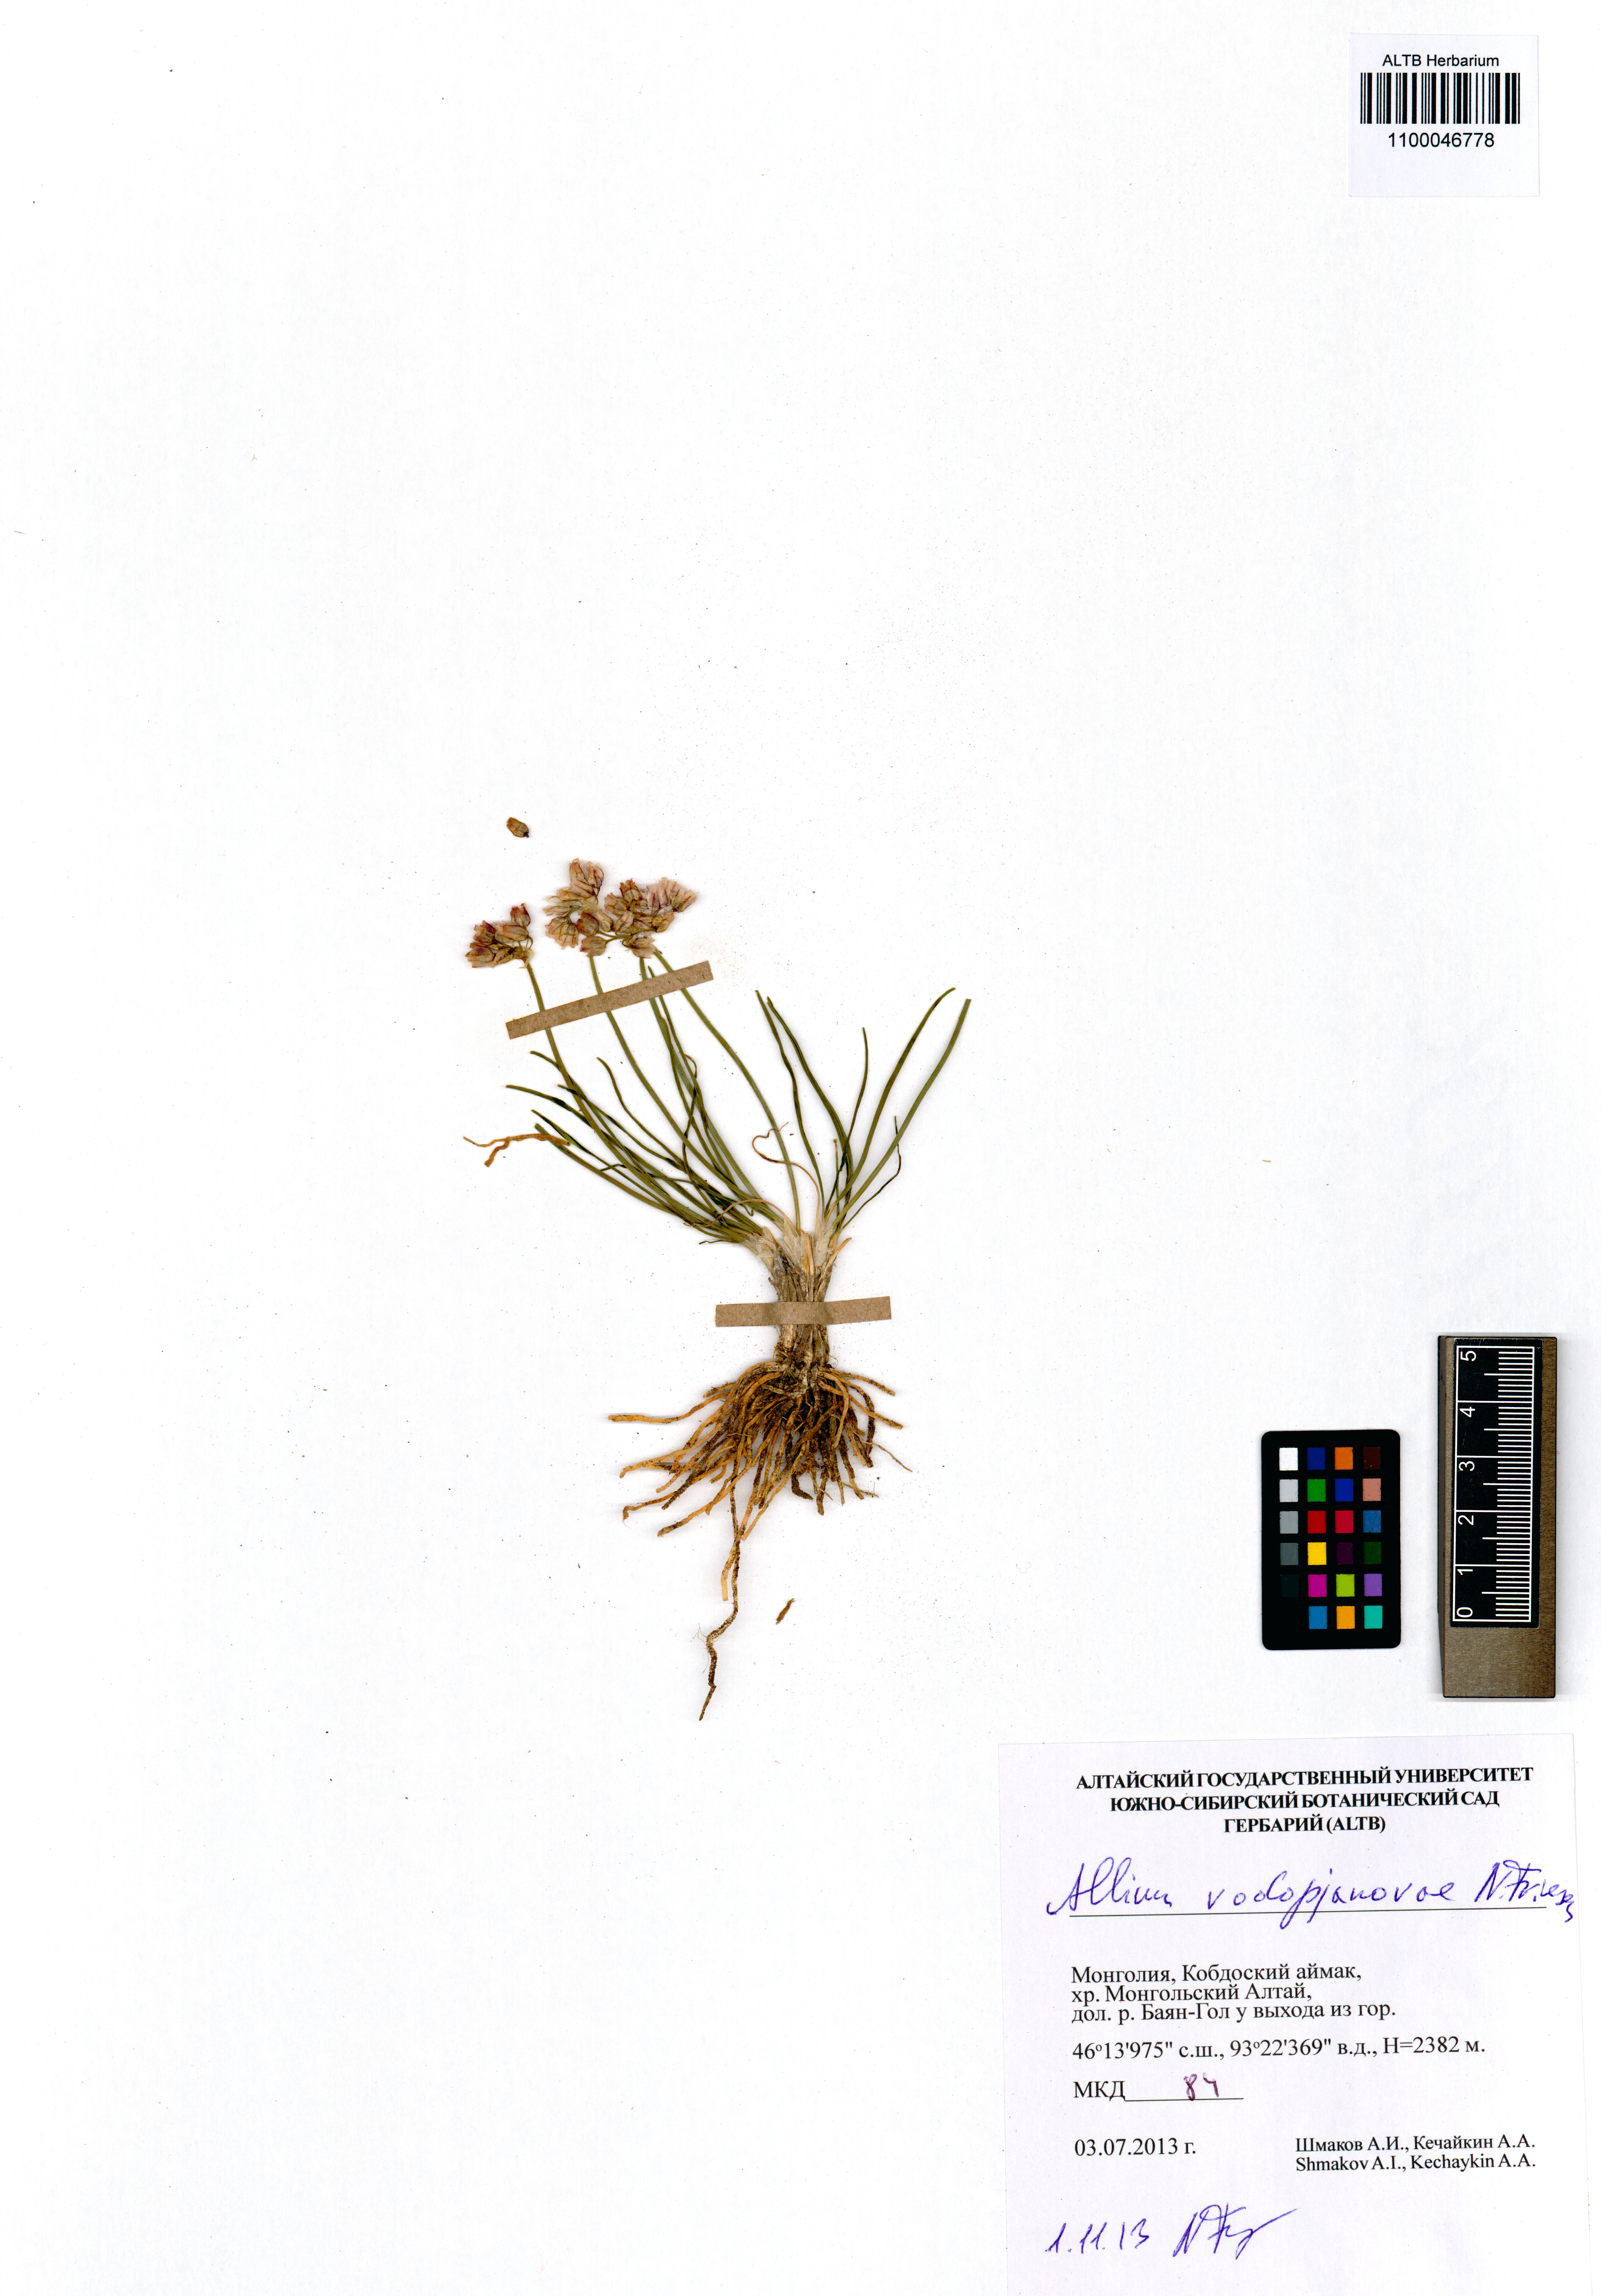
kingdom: Plantae
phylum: Tracheophyta
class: Liliopsida
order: Asparagales
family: Amaryllidaceae
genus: Allium
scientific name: Allium vodopjanovae
